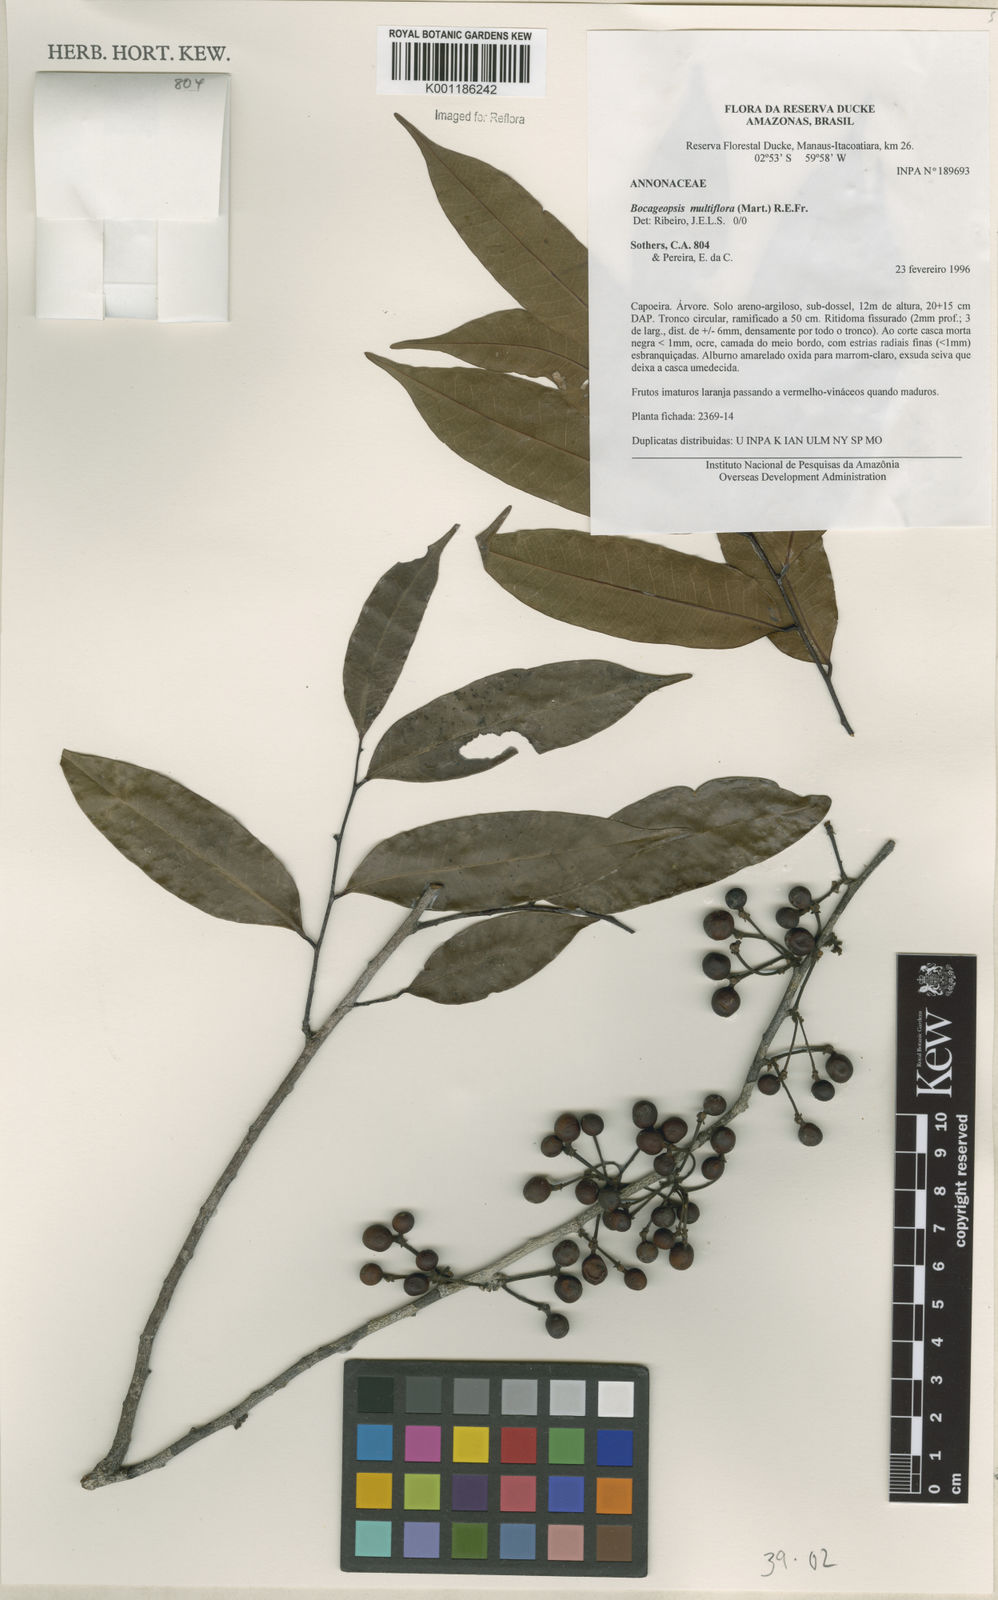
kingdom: Plantae
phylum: Tracheophyta
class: Magnoliopsida
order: Magnoliales
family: Annonaceae
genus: Bocageopsis
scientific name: Bocageopsis multiflora
